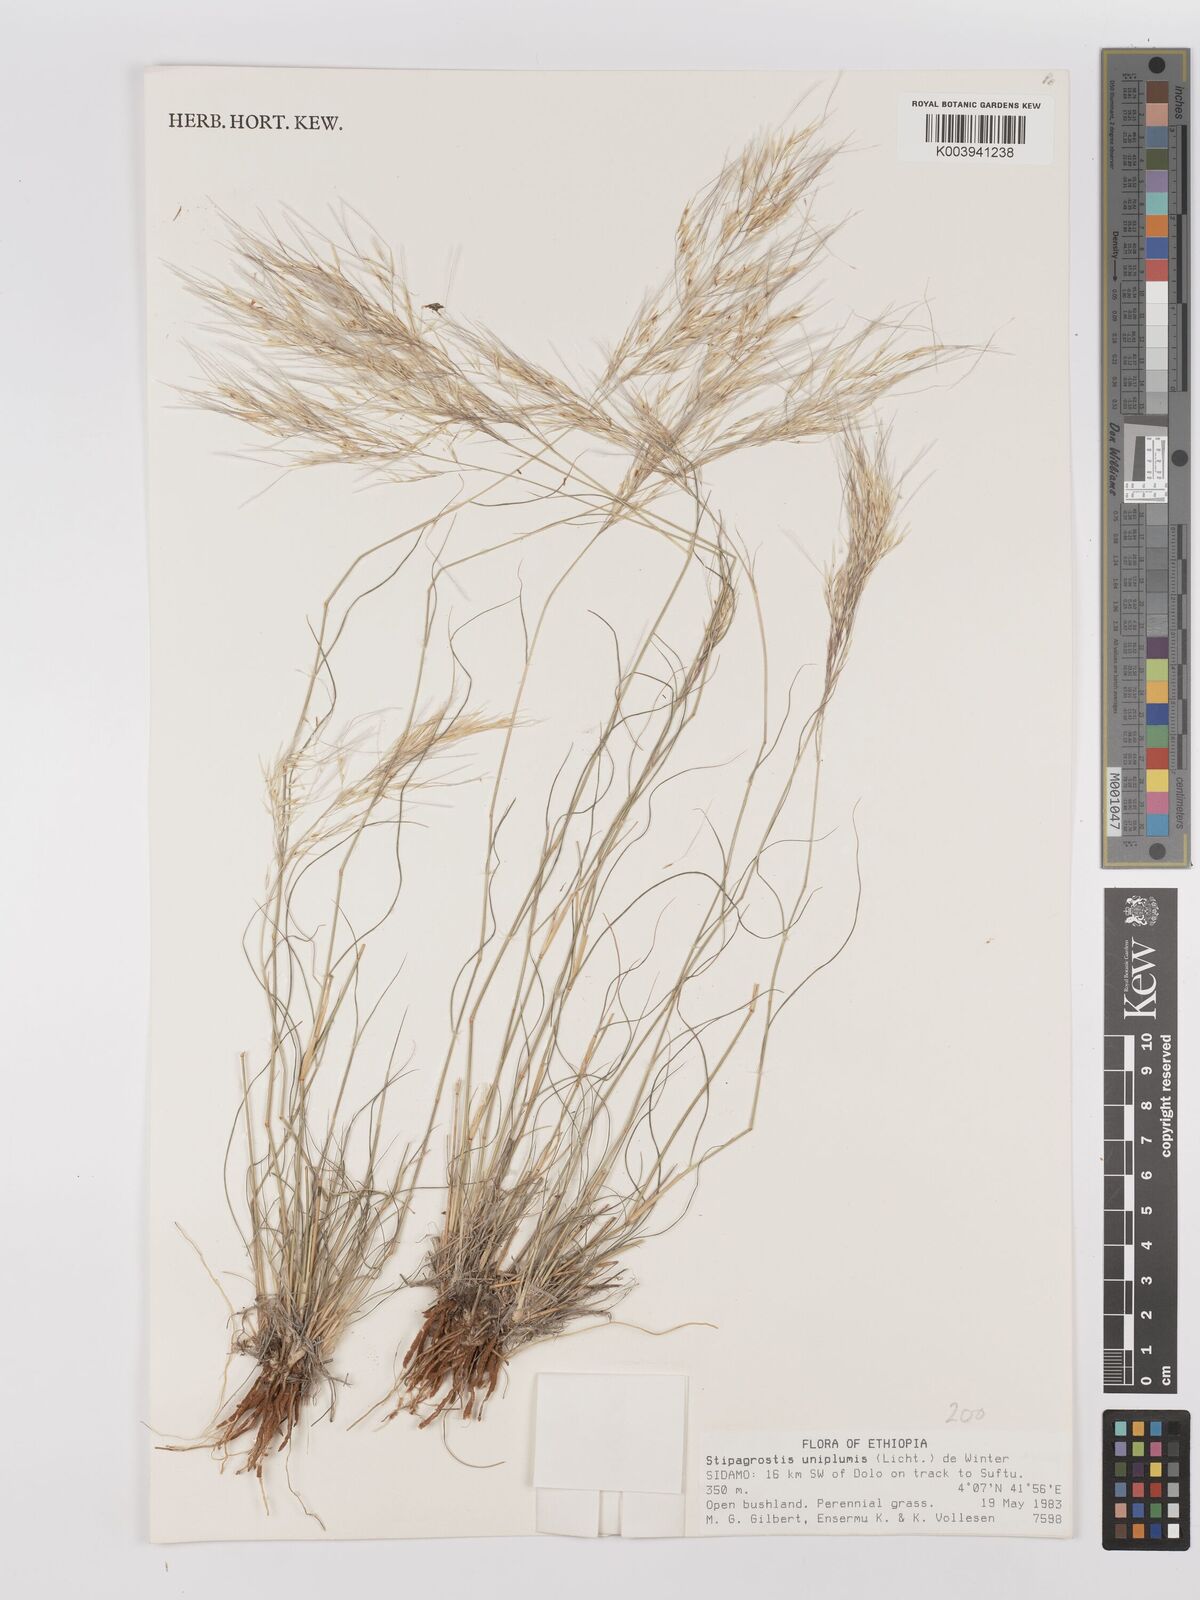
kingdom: Plantae
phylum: Tracheophyta
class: Liliopsida
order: Poales
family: Poaceae
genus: Stipagrostis
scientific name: Stipagrostis uniplumis
